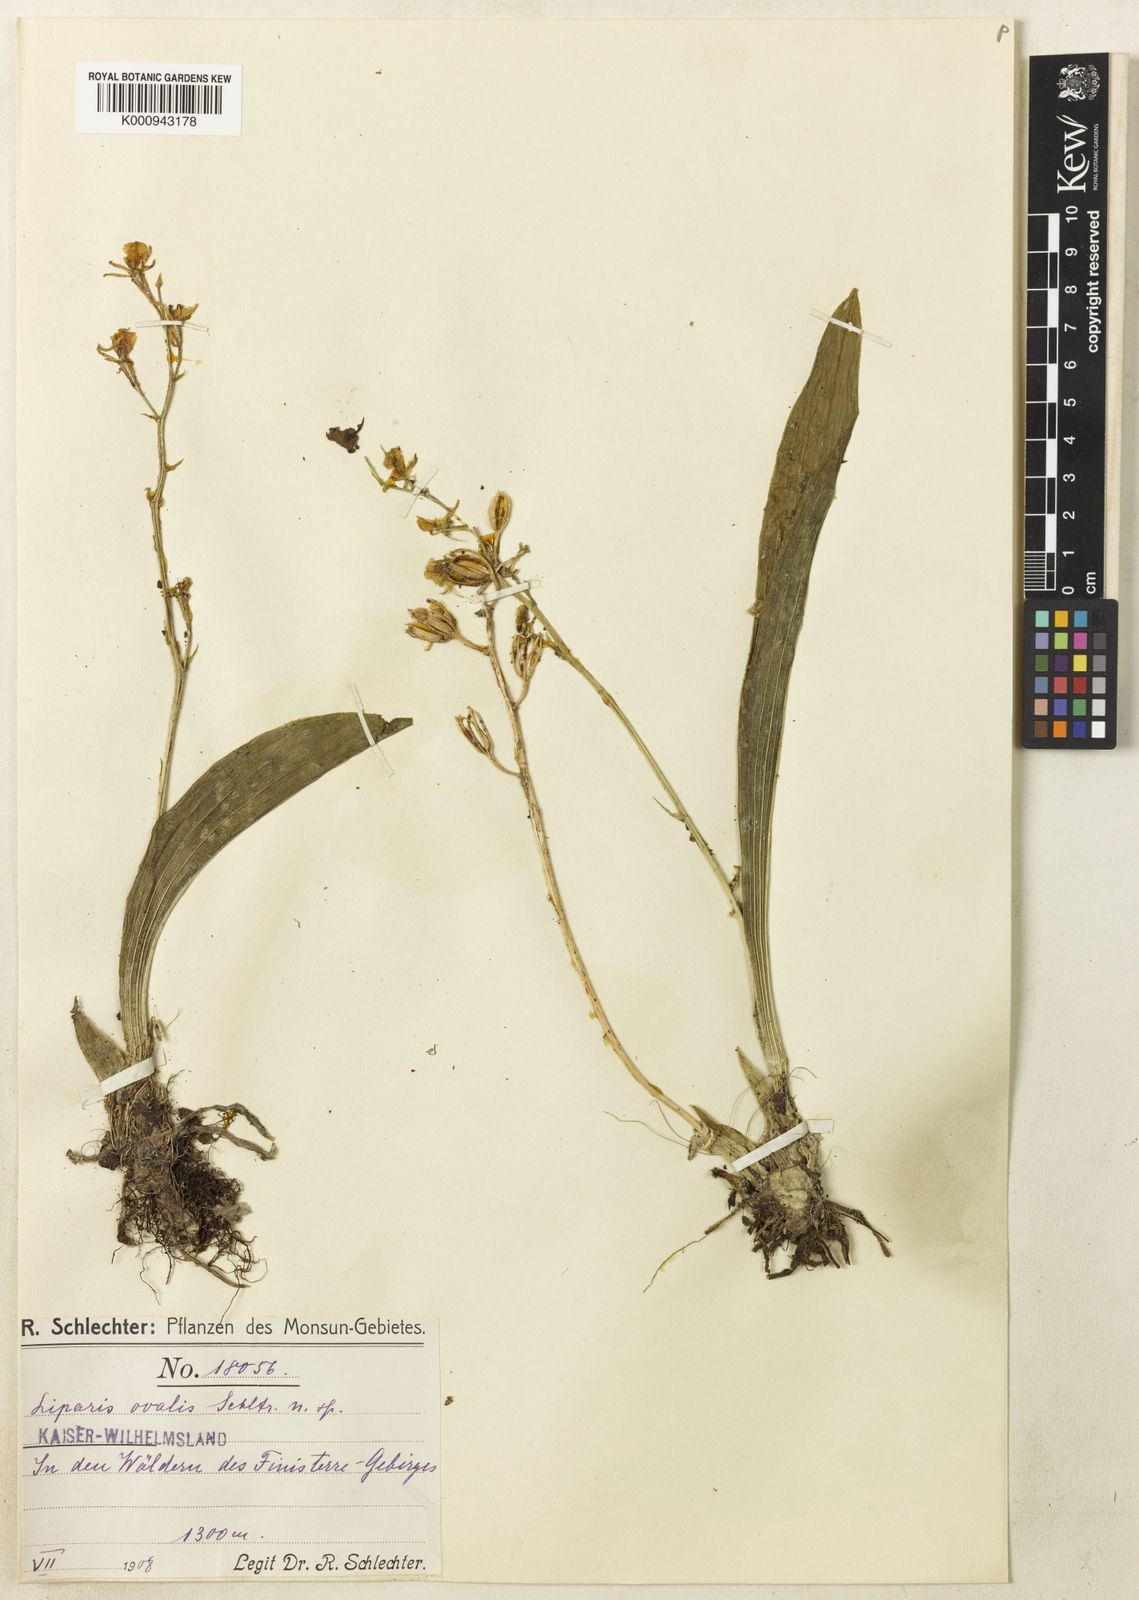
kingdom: Plantae
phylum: Tracheophyta
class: Liliopsida
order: Asparagales
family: Orchidaceae
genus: Liparis
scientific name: Liparis ovalis
